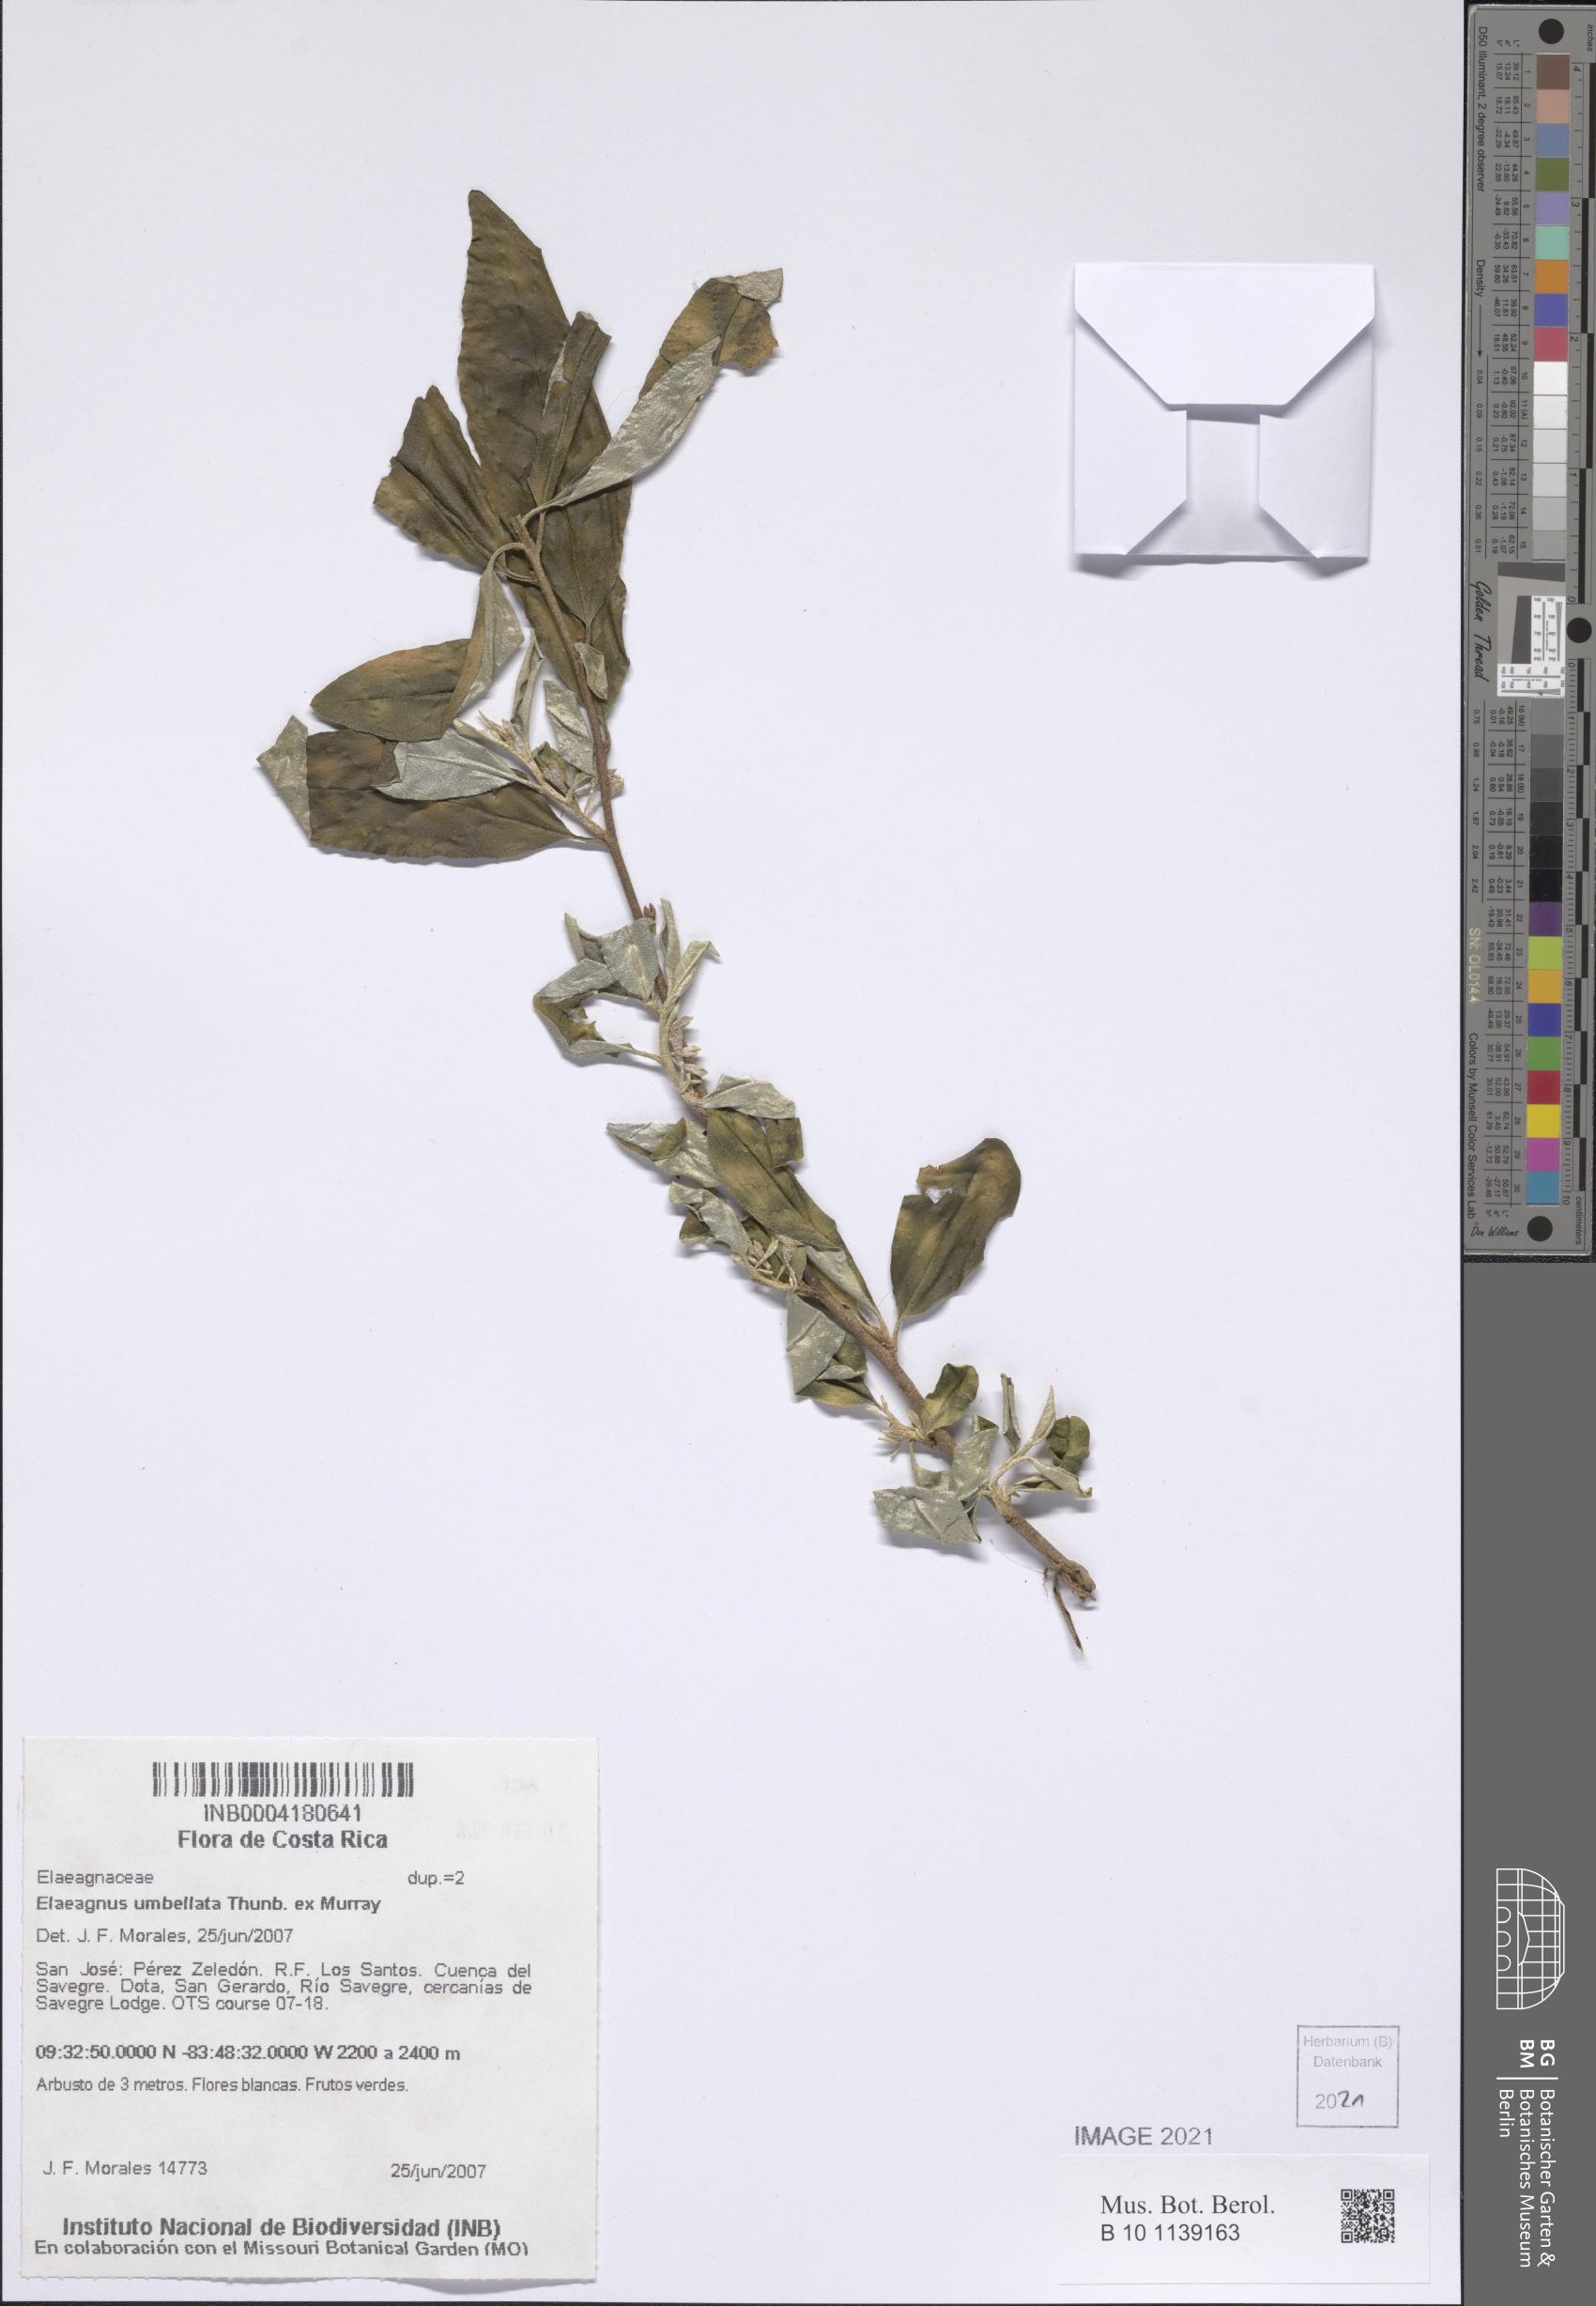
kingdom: Plantae
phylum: Tracheophyta
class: Magnoliopsida
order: Rosales
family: Elaeagnaceae
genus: Elaeagnus
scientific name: Elaeagnus umbellata
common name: Autumn olive
